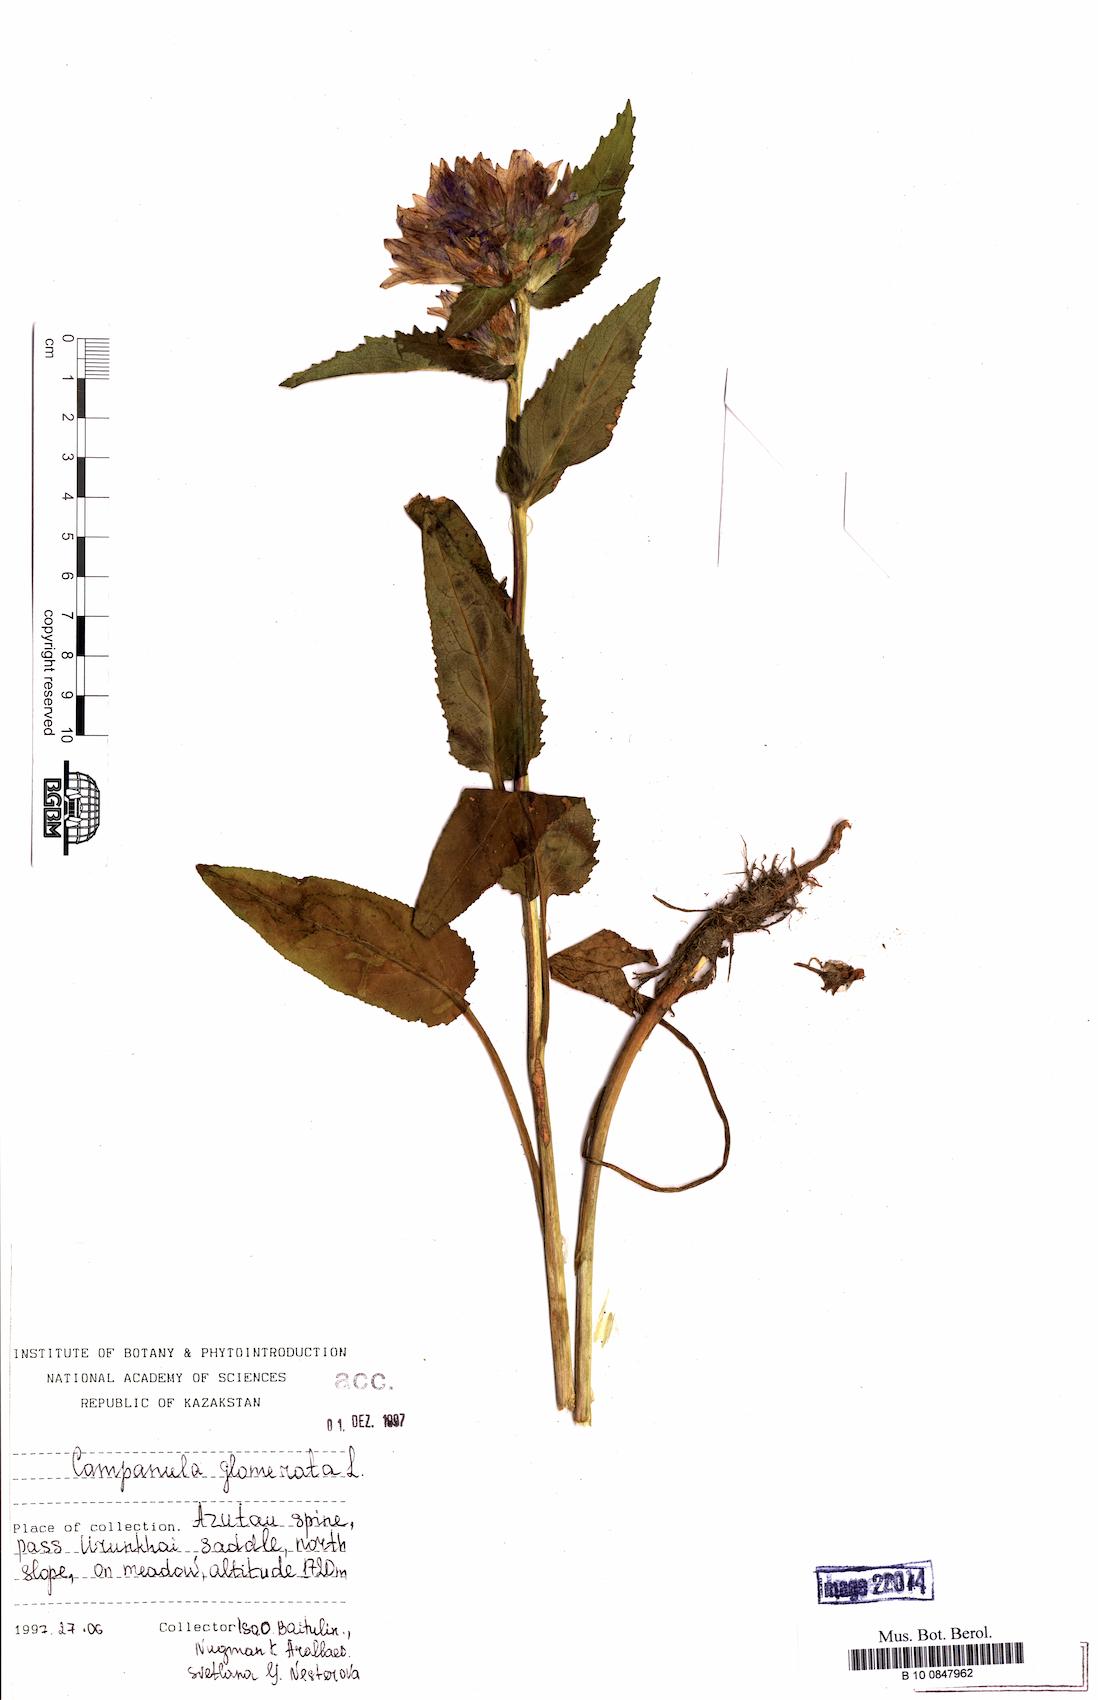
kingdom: Plantae
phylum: Tracheophyta
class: Magnoliopsida
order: Asterales
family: Campanulaceae
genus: Campanula
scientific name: Campanula glomerata
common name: Clustered bellflower
